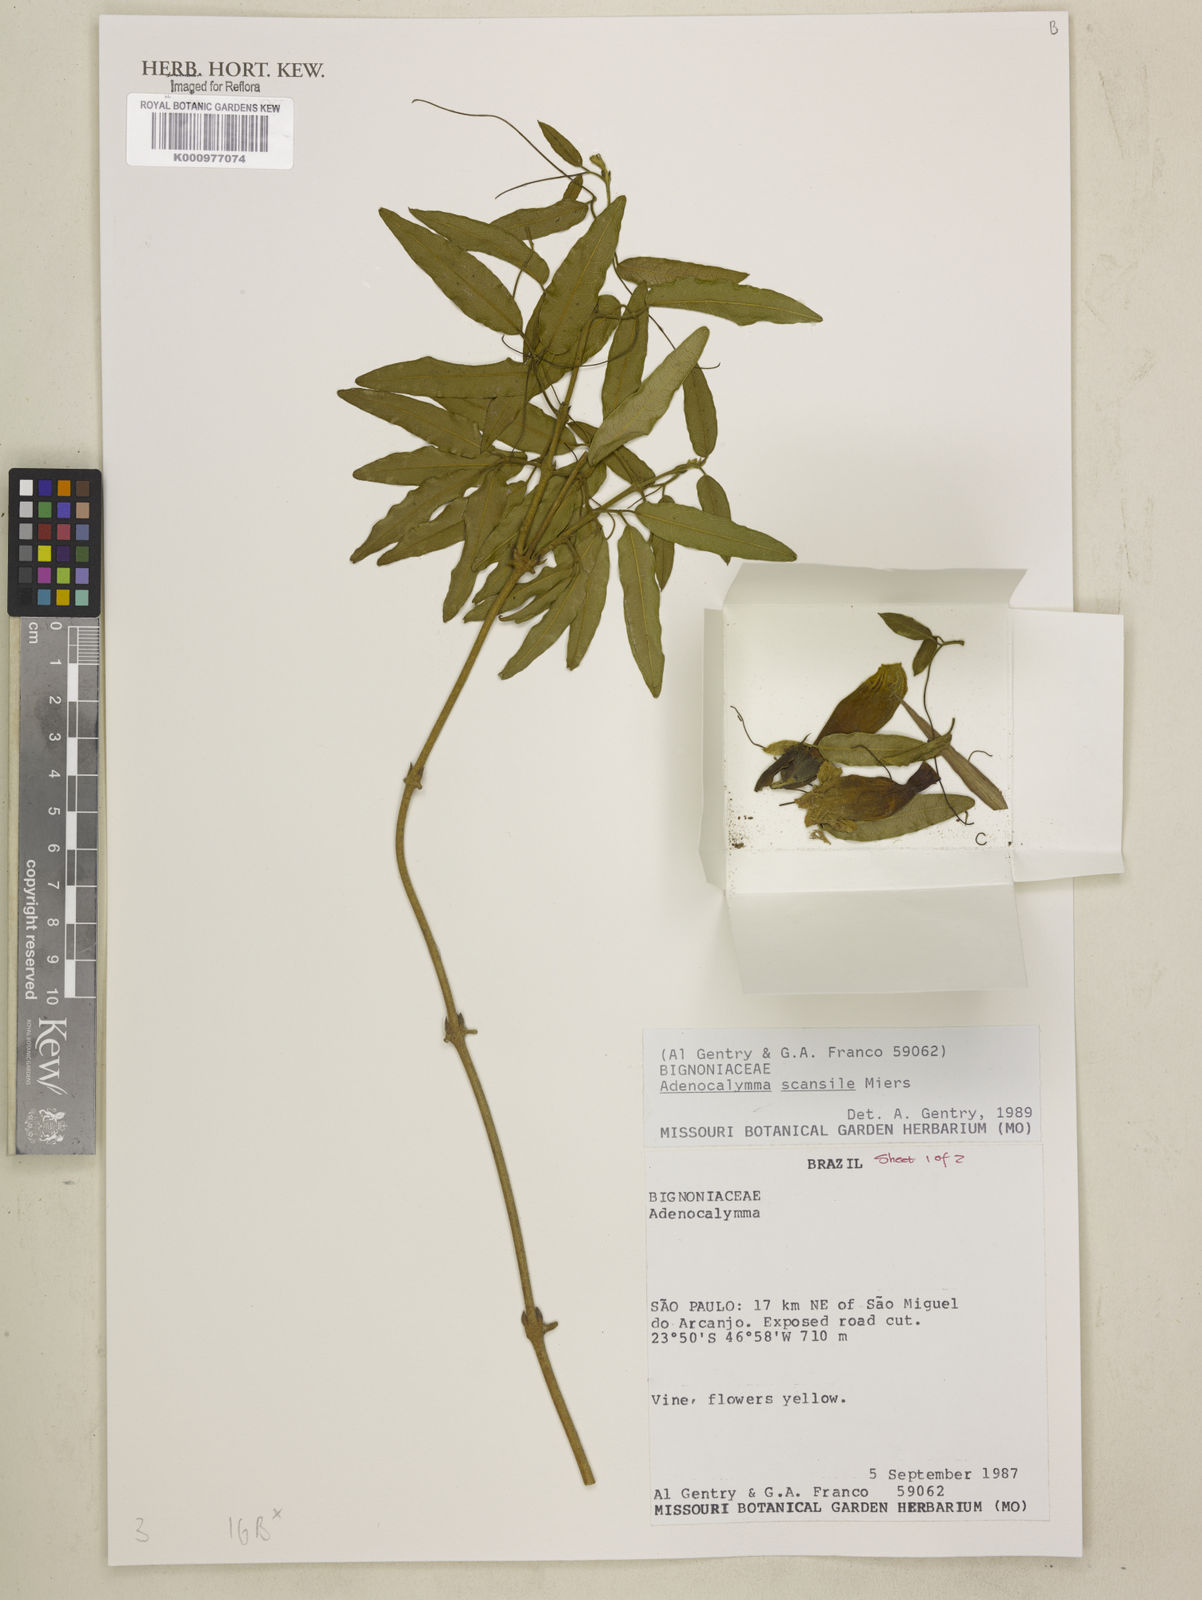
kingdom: Plantae
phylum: Tracheophyta
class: Magnoliopsida
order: Lamiales
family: Bignoniaceae
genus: Adenocalymma
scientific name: Adenocalymma scansile
